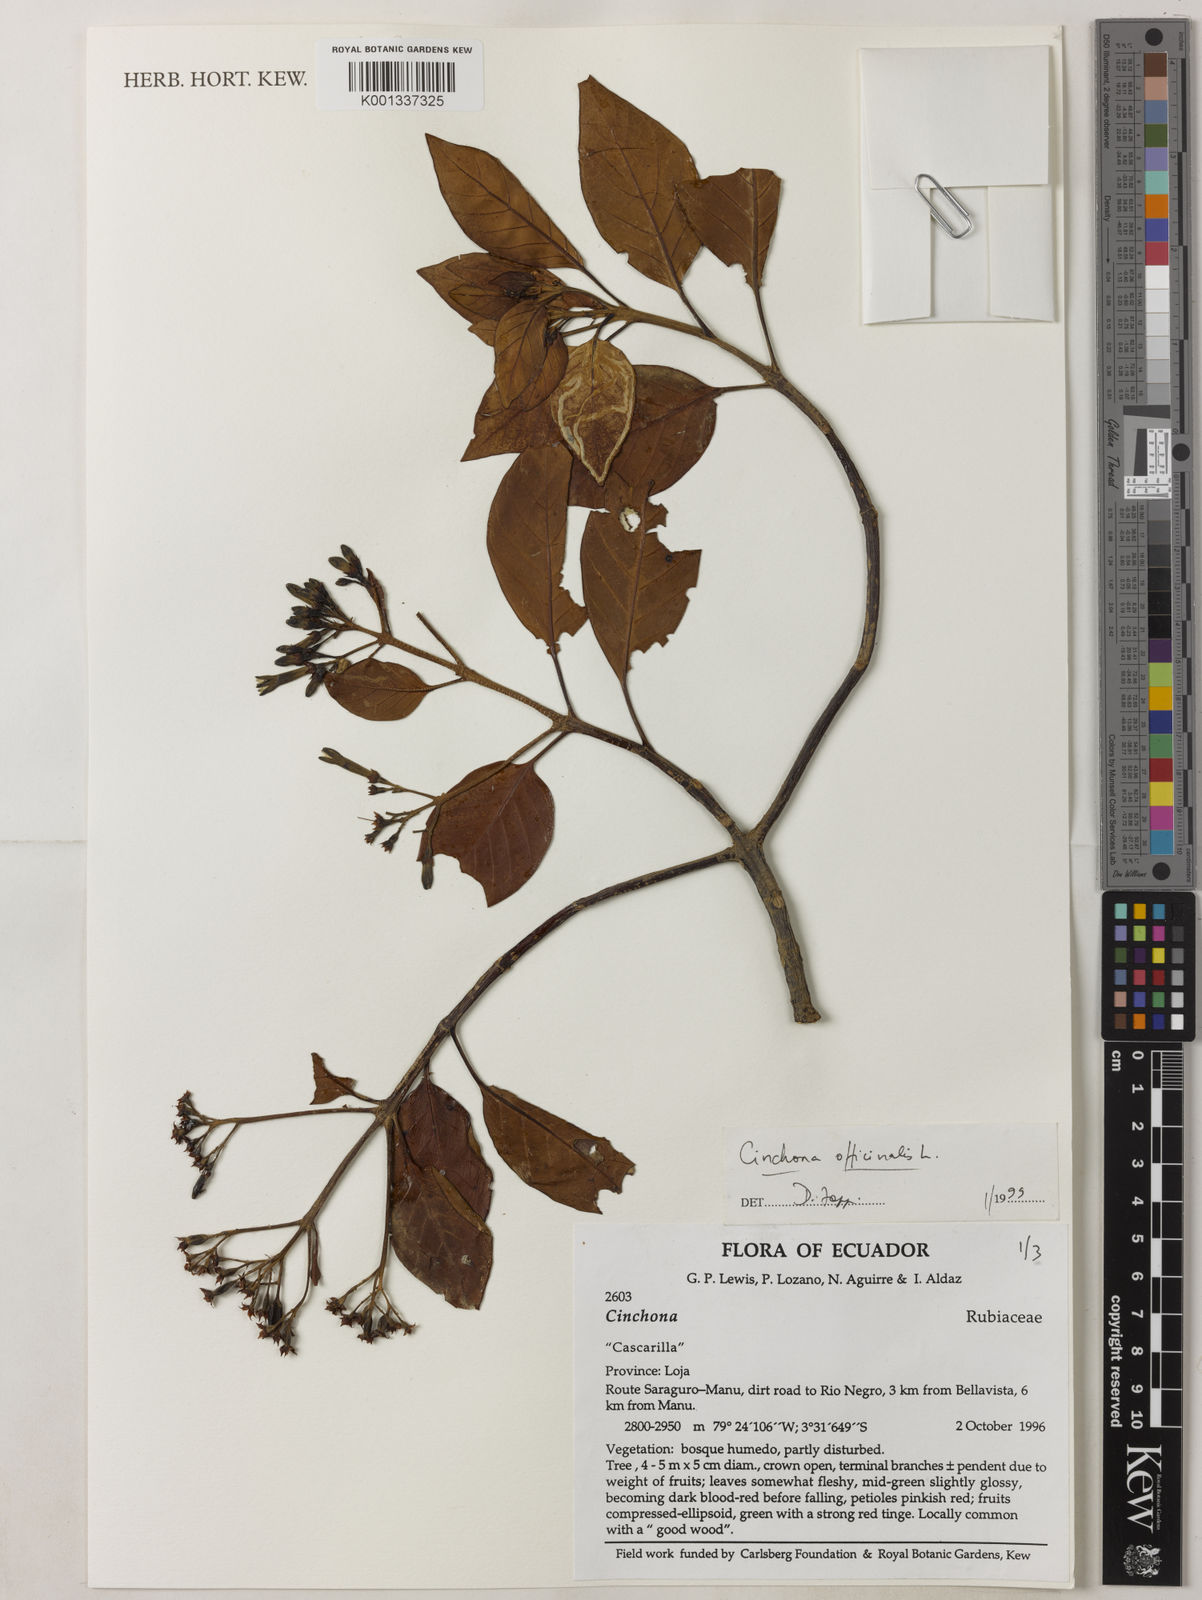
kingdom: Plantae
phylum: Tracheophyta
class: Magnoliopsida
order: Gentianales
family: Rubiaceae
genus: Cinchona
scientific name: Cinchona officinalis
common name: Lojabark
